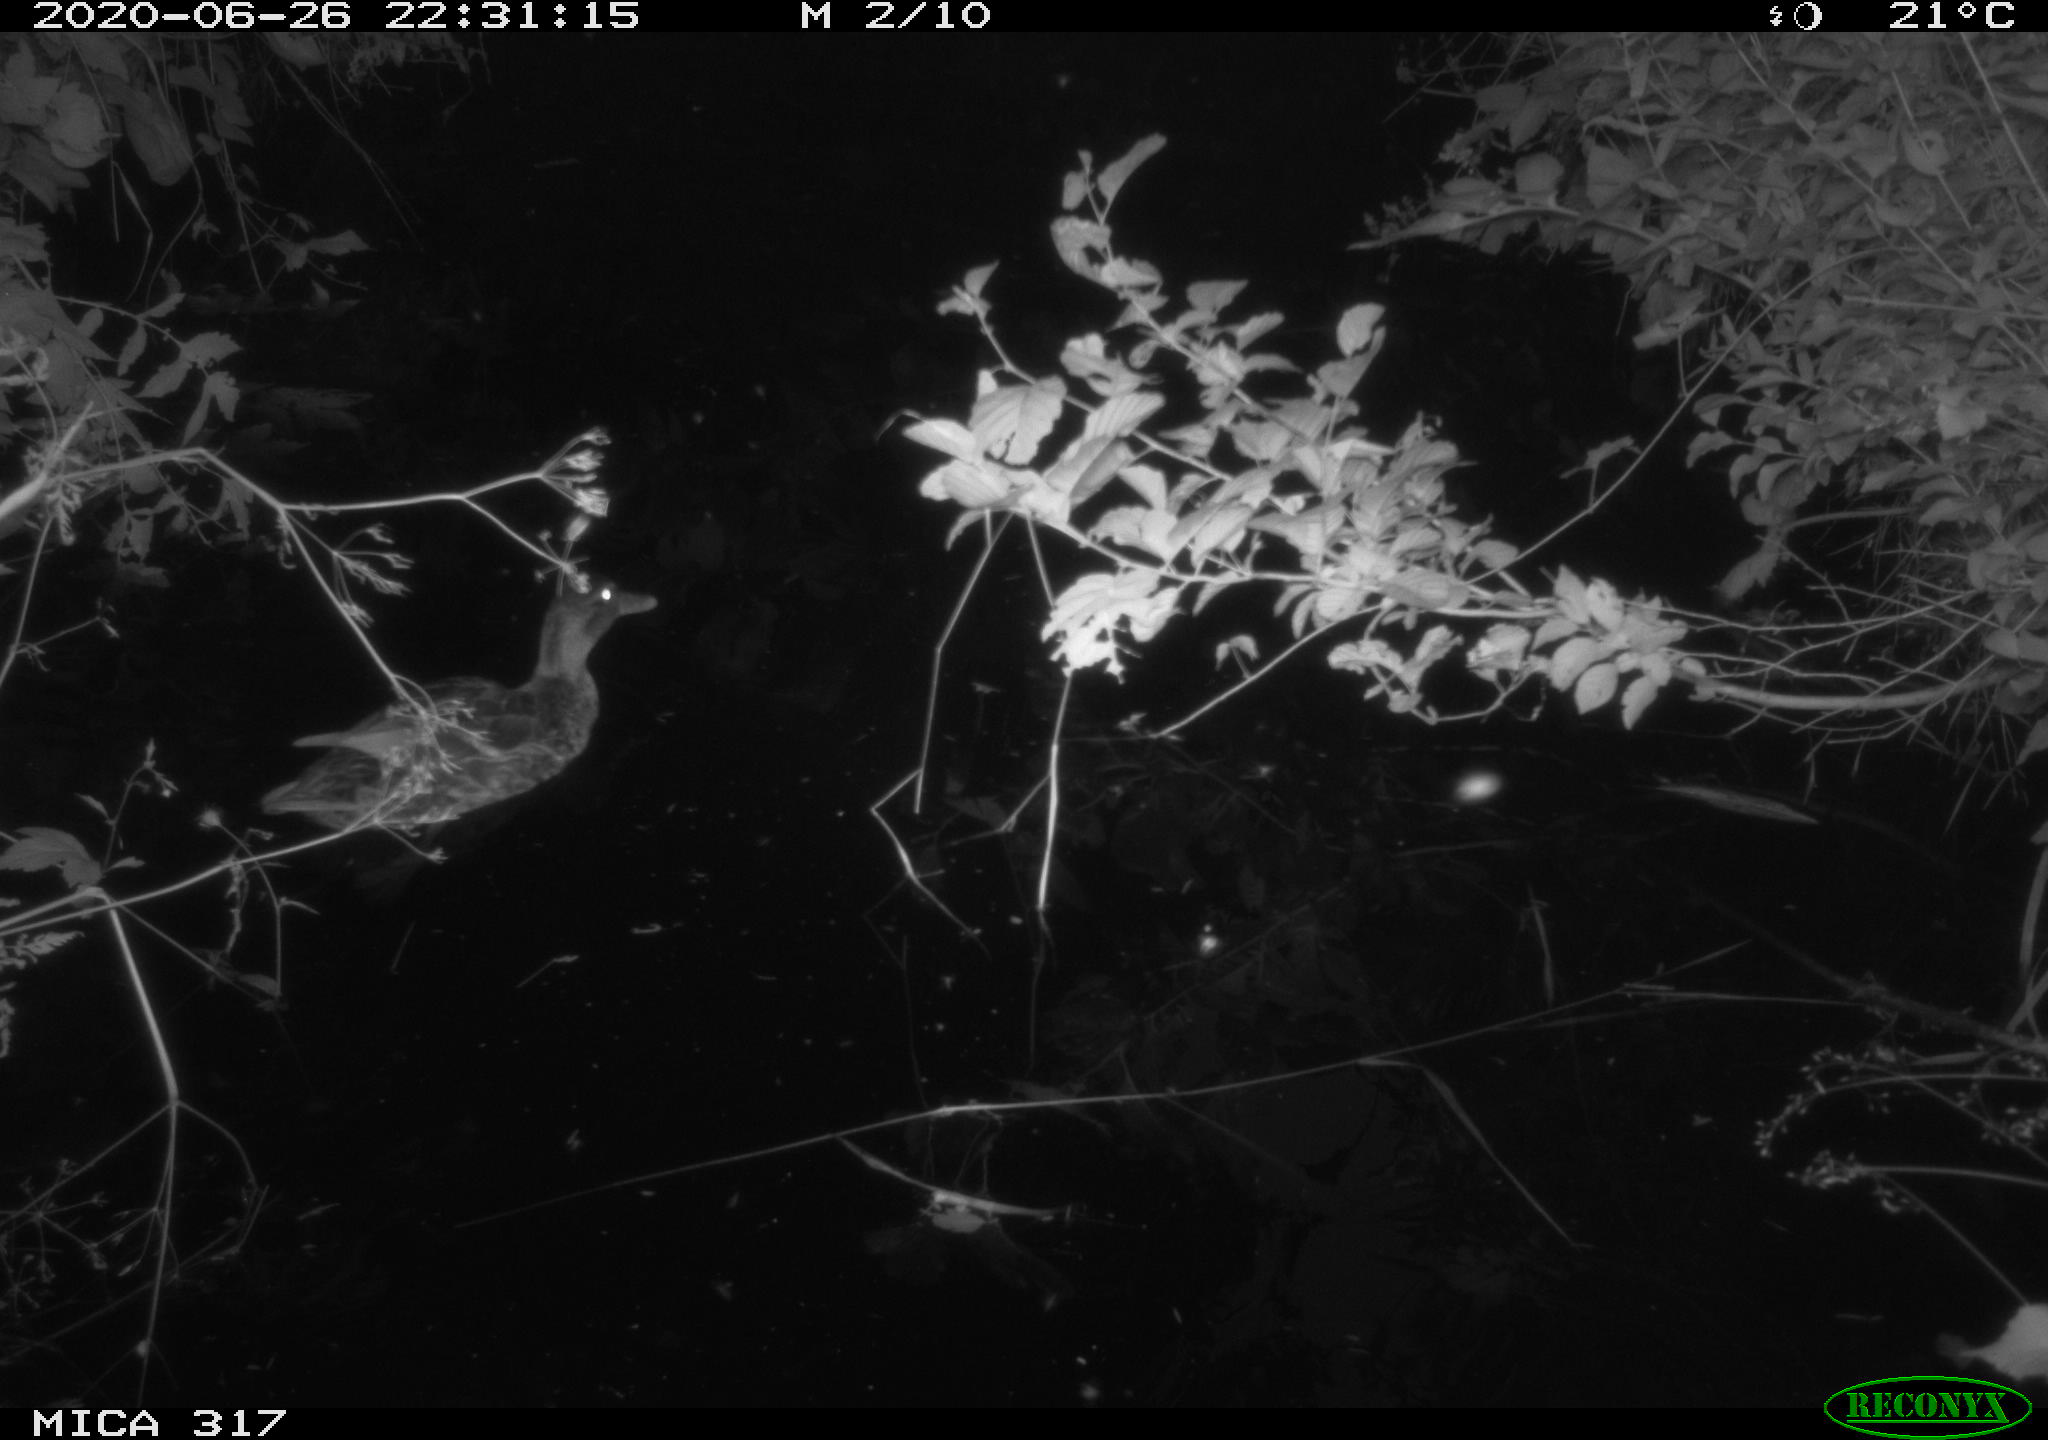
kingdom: Animalia
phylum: Chordata
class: Aves
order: Anseriformes
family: Anatidae
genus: Anas
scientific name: Anas platyrhynchos
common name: Mallard
